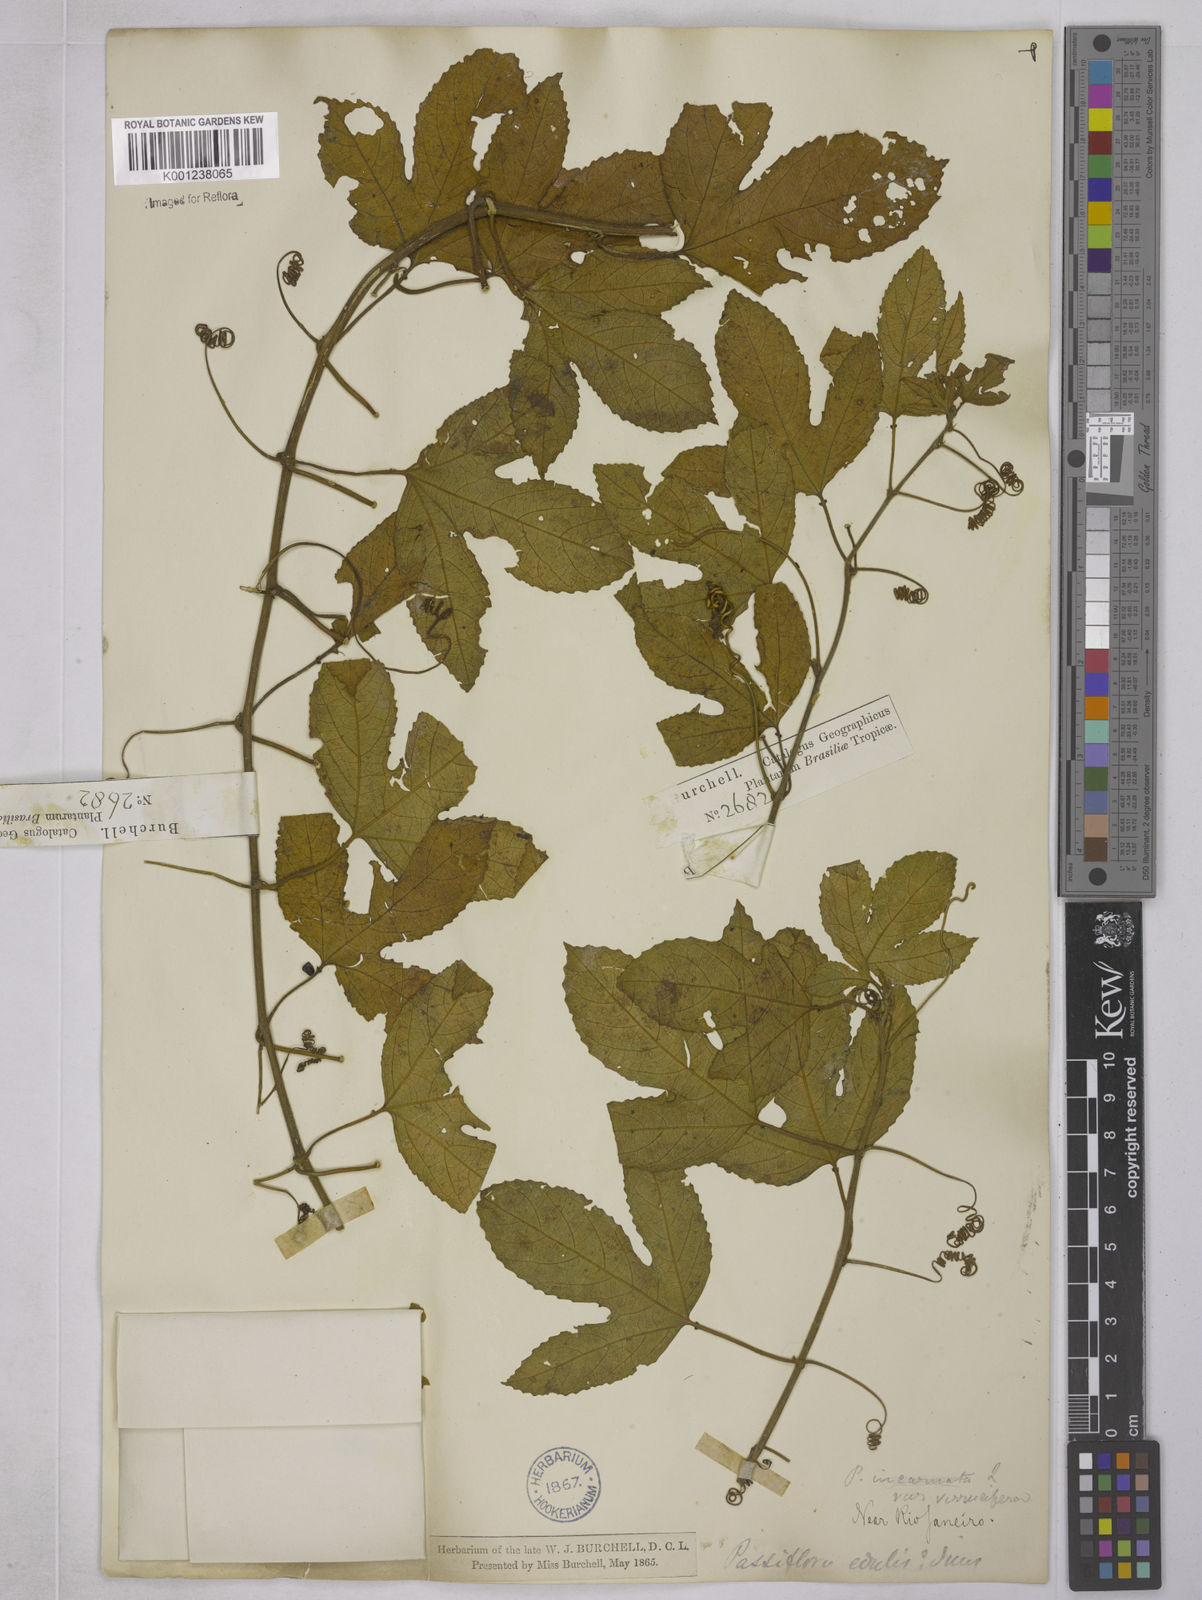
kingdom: Plantae
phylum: Tracheophyta
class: Magnoliopsida
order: Malpighiales
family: Passifloraceae
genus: Passiflora
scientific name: Passiflora edulis
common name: Purple granadilla
